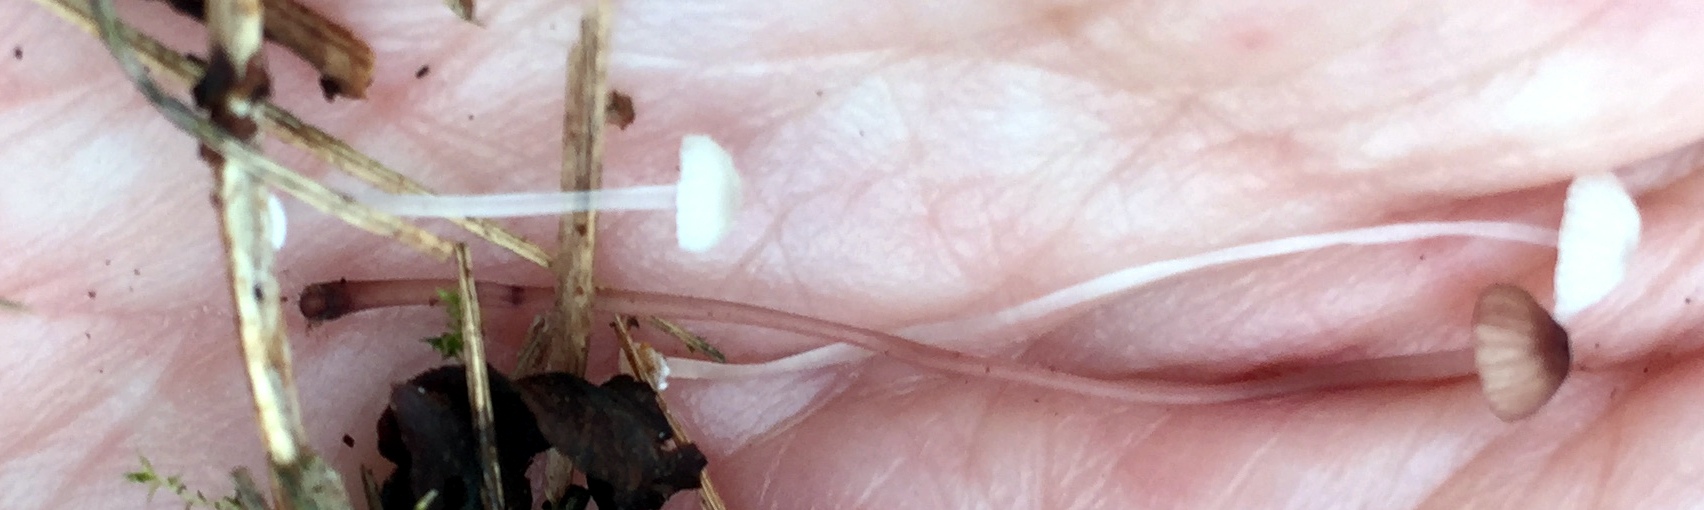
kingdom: Fungi
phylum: Basidiomycota
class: Agaricomycetes
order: Agaricales
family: Mycenaceae
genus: Mycena
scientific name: Mycena stylobates
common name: fureskivet huesvamp
